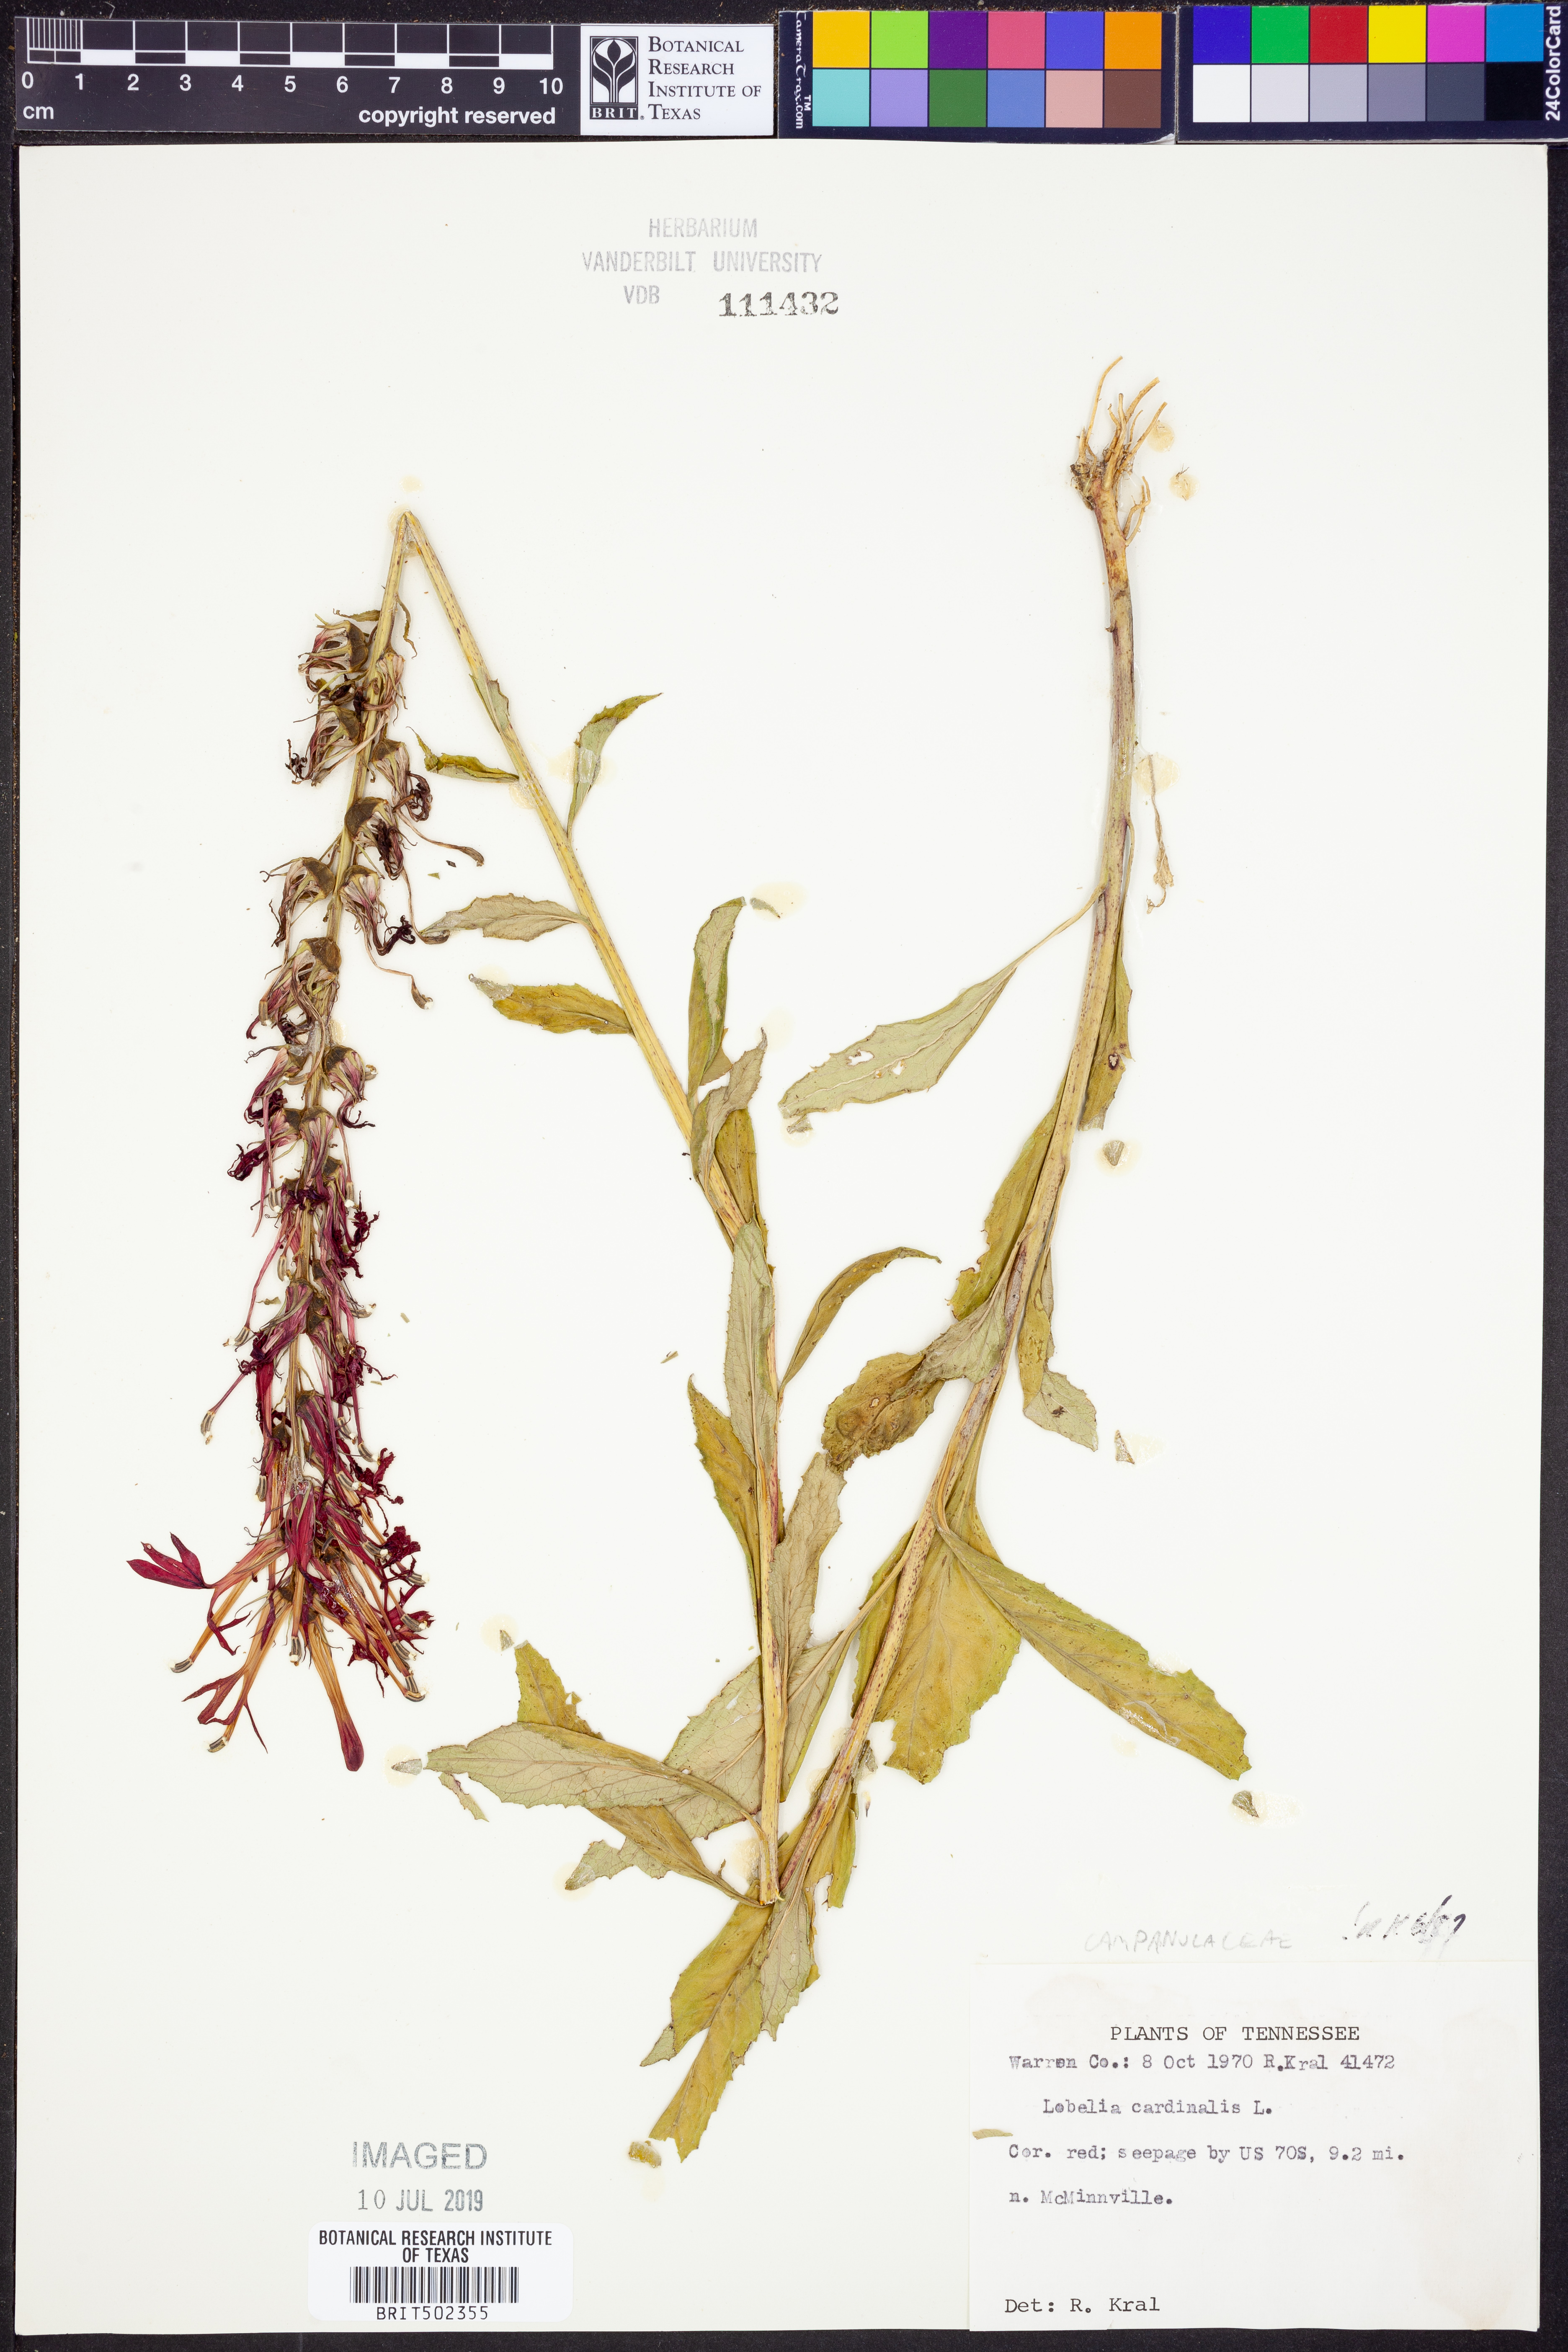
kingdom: Plantae
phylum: Tracheophyta
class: Magnoliopsida
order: Asterales
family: Campanulaceae
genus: Lobelia
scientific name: Lobelia cardinalis
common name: Cardinal flower
